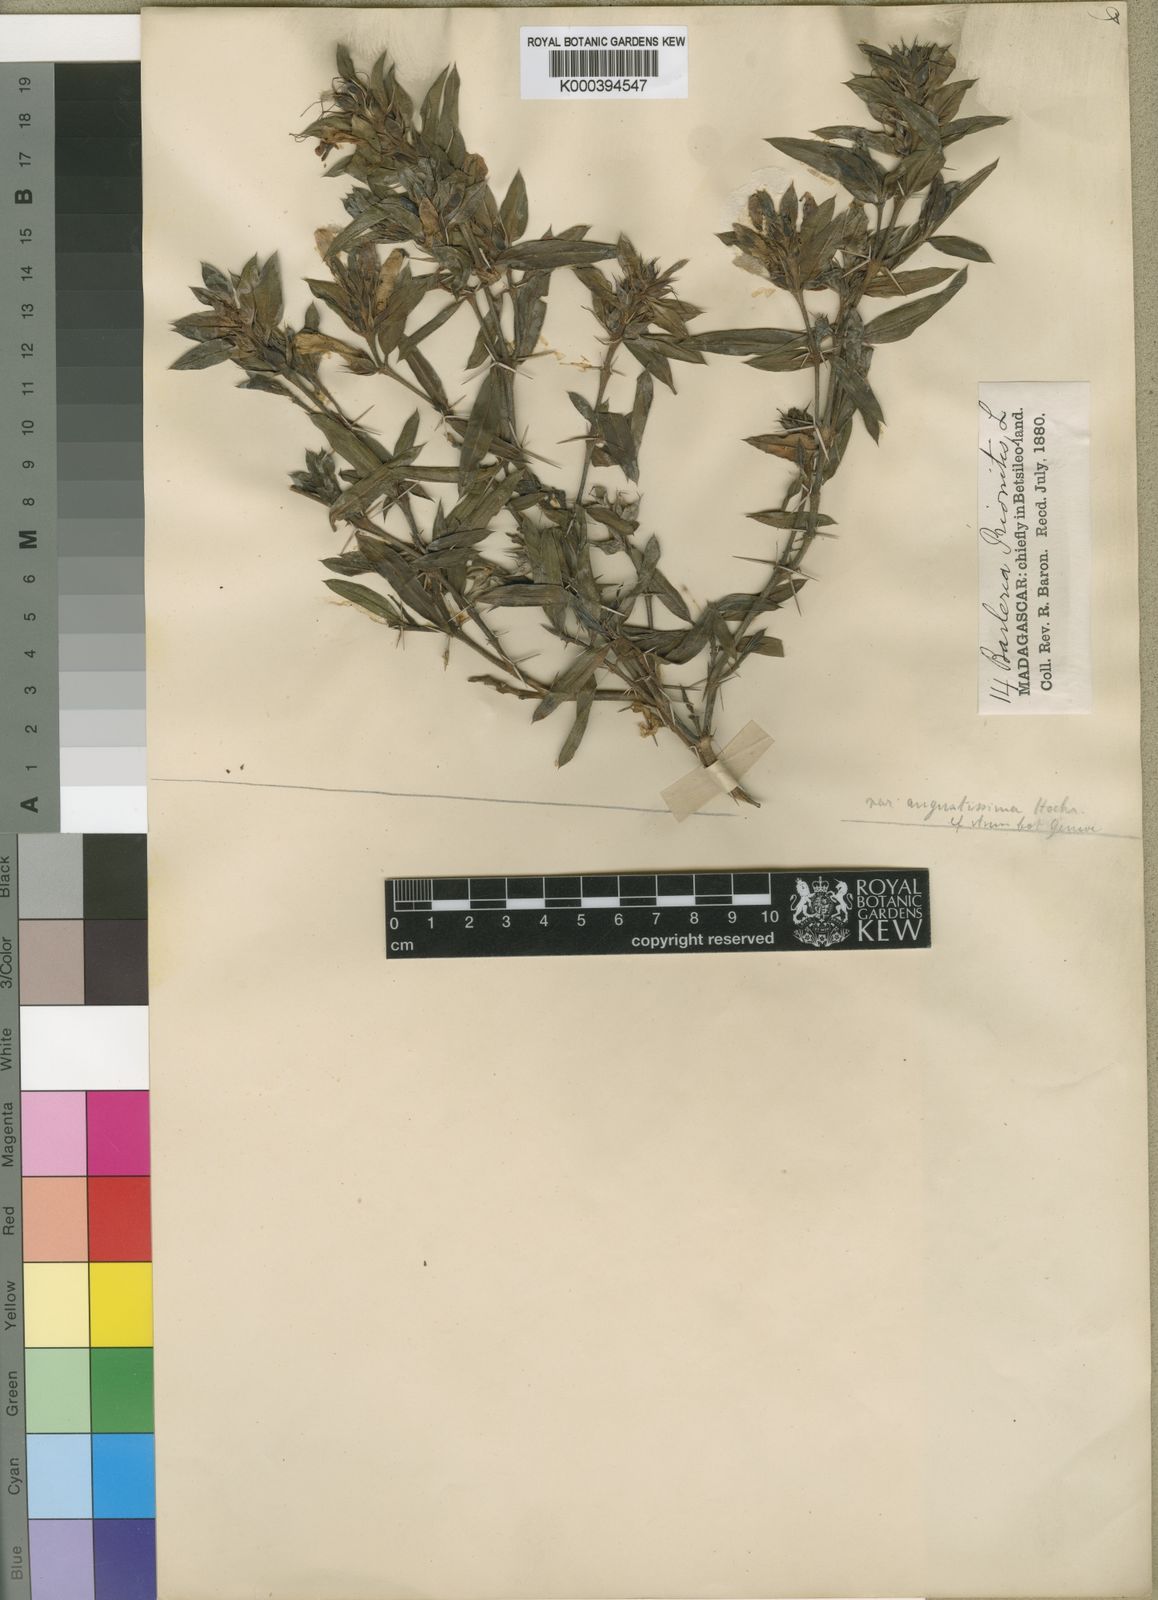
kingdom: Plantae
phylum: Tracheophyta
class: Magnoliopsida
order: Lamiales
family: Acanthaceae
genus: Barleria
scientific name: Barleria prionitis
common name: Barleria
